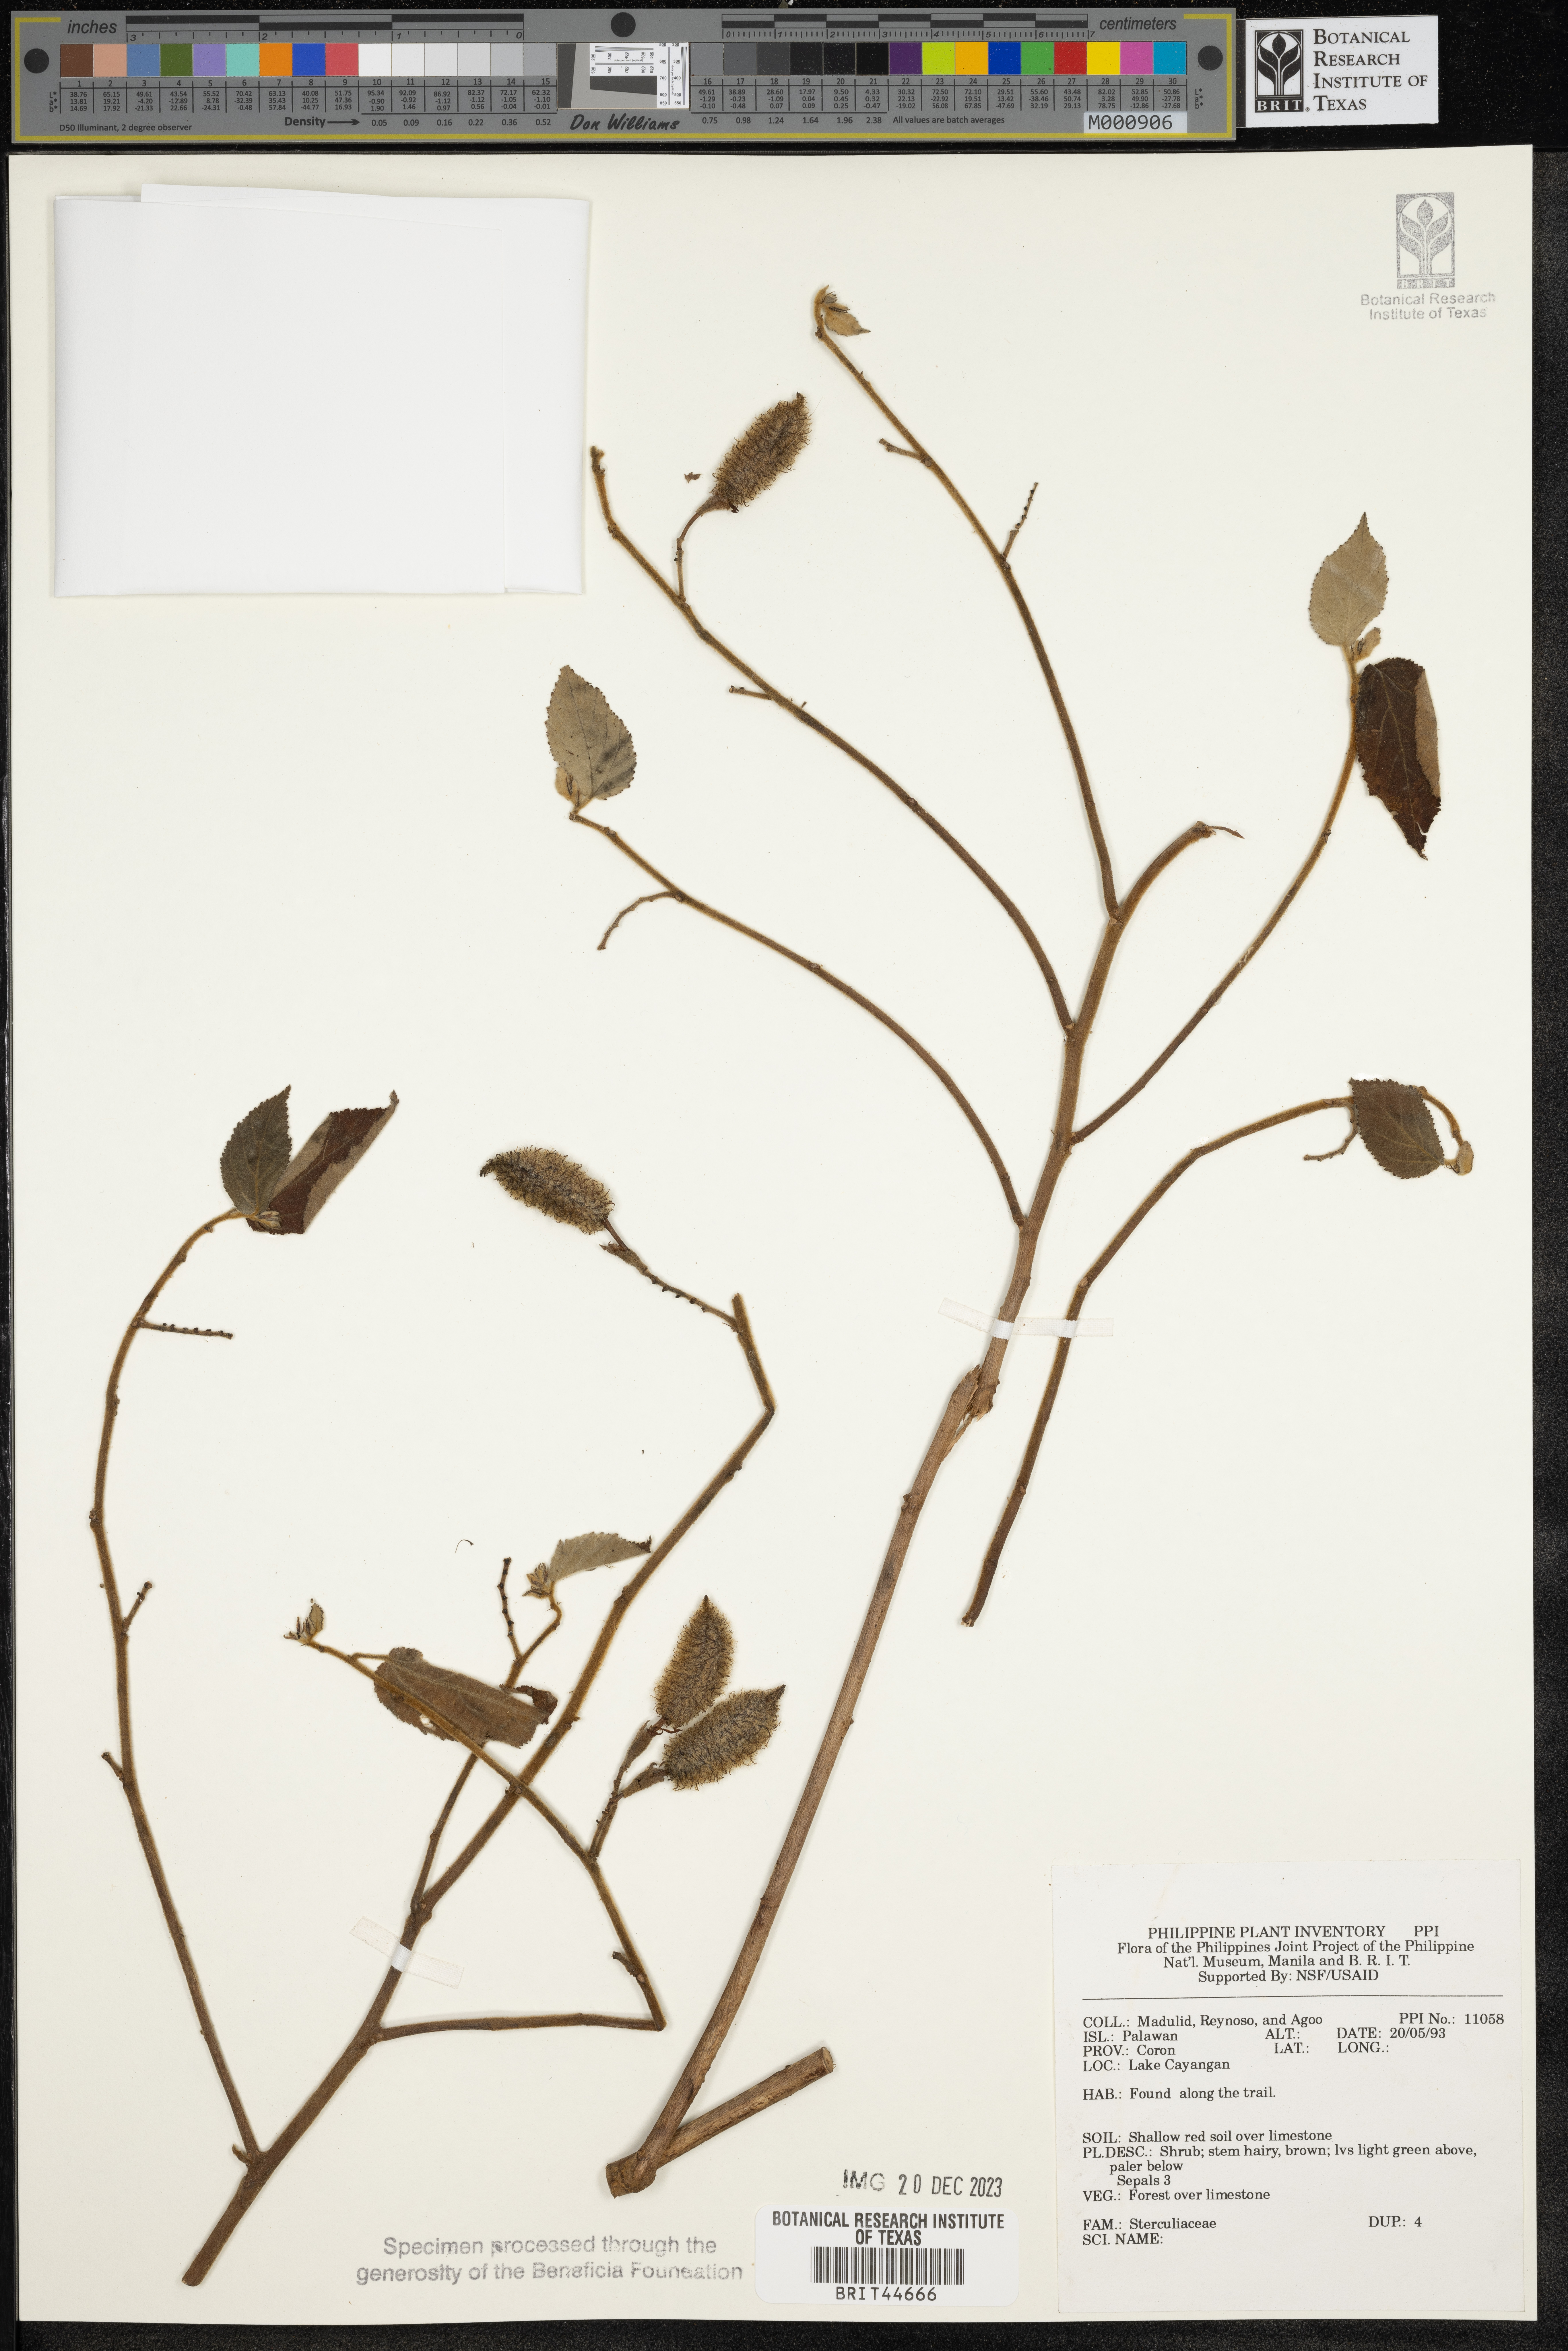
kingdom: Plantae
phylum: Tracheophyta
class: Magnoliopsida
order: Malvales
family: Sterculiaceae
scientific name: Sterculiaceae
